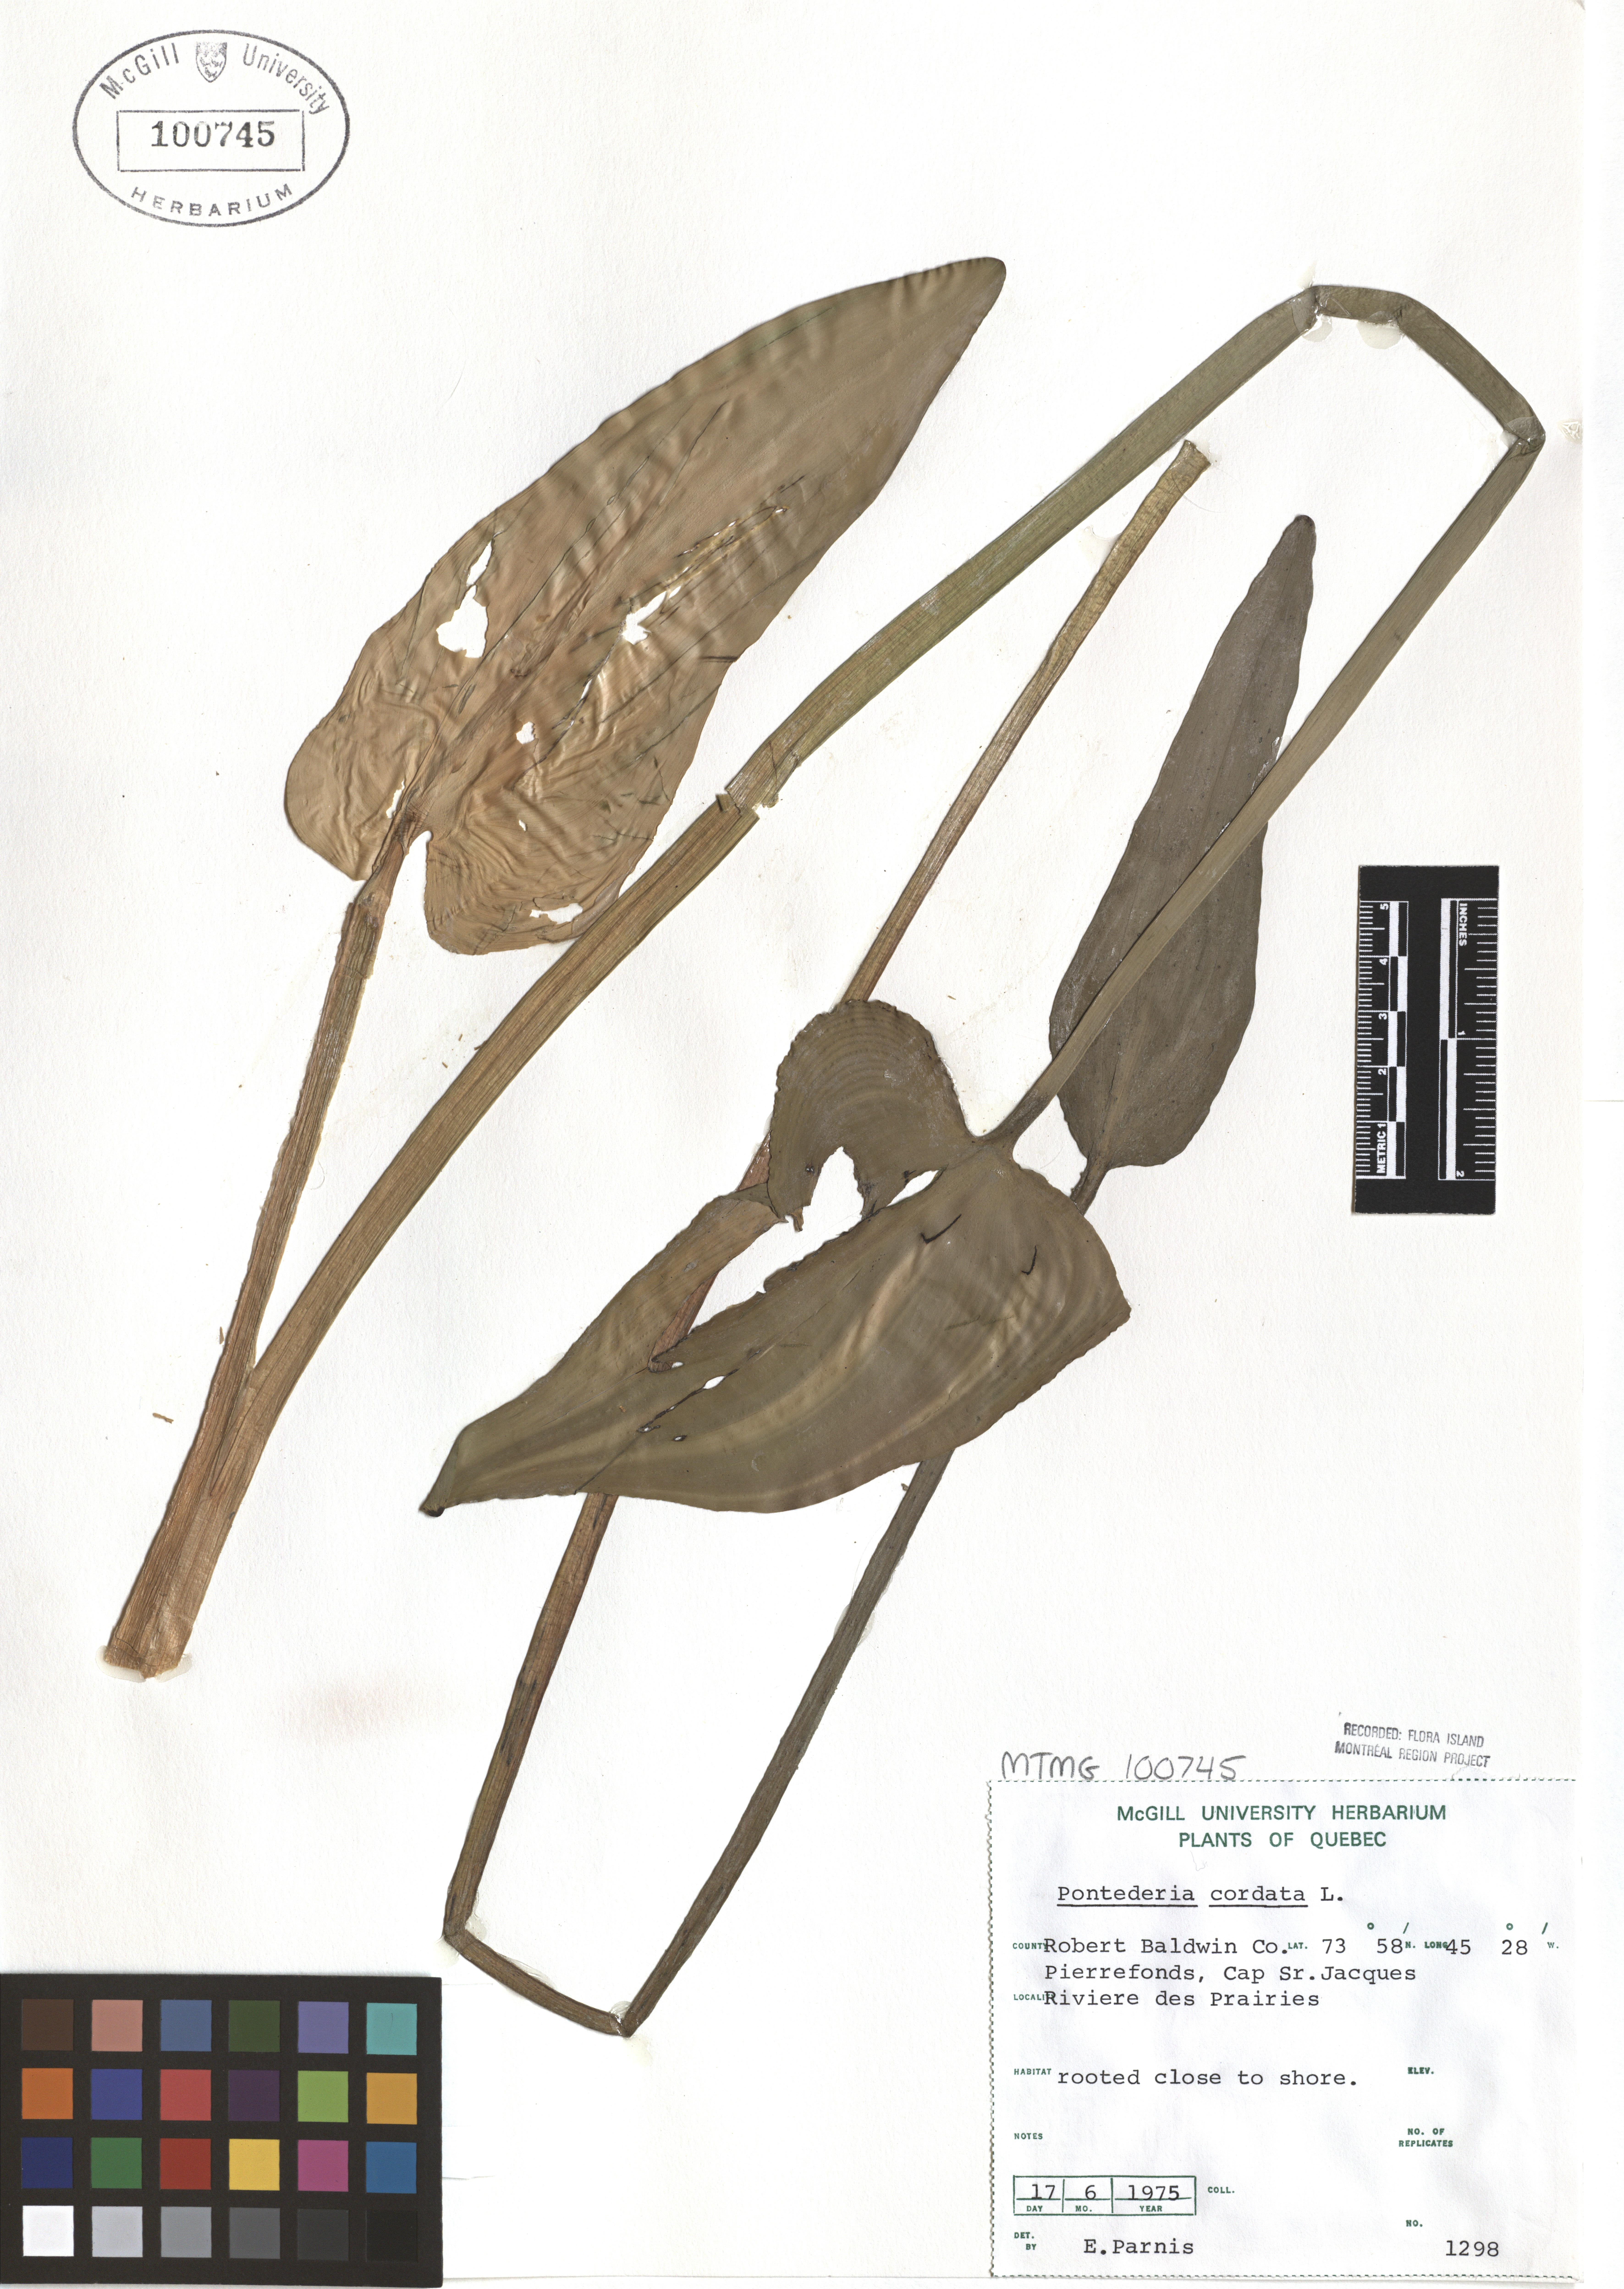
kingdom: Plantae
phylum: Tracheophyta
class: Liliopsida
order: Commelinales
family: Pontederiaceae
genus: Pontederia
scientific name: Pontederia cordata
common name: Pickerelweed
